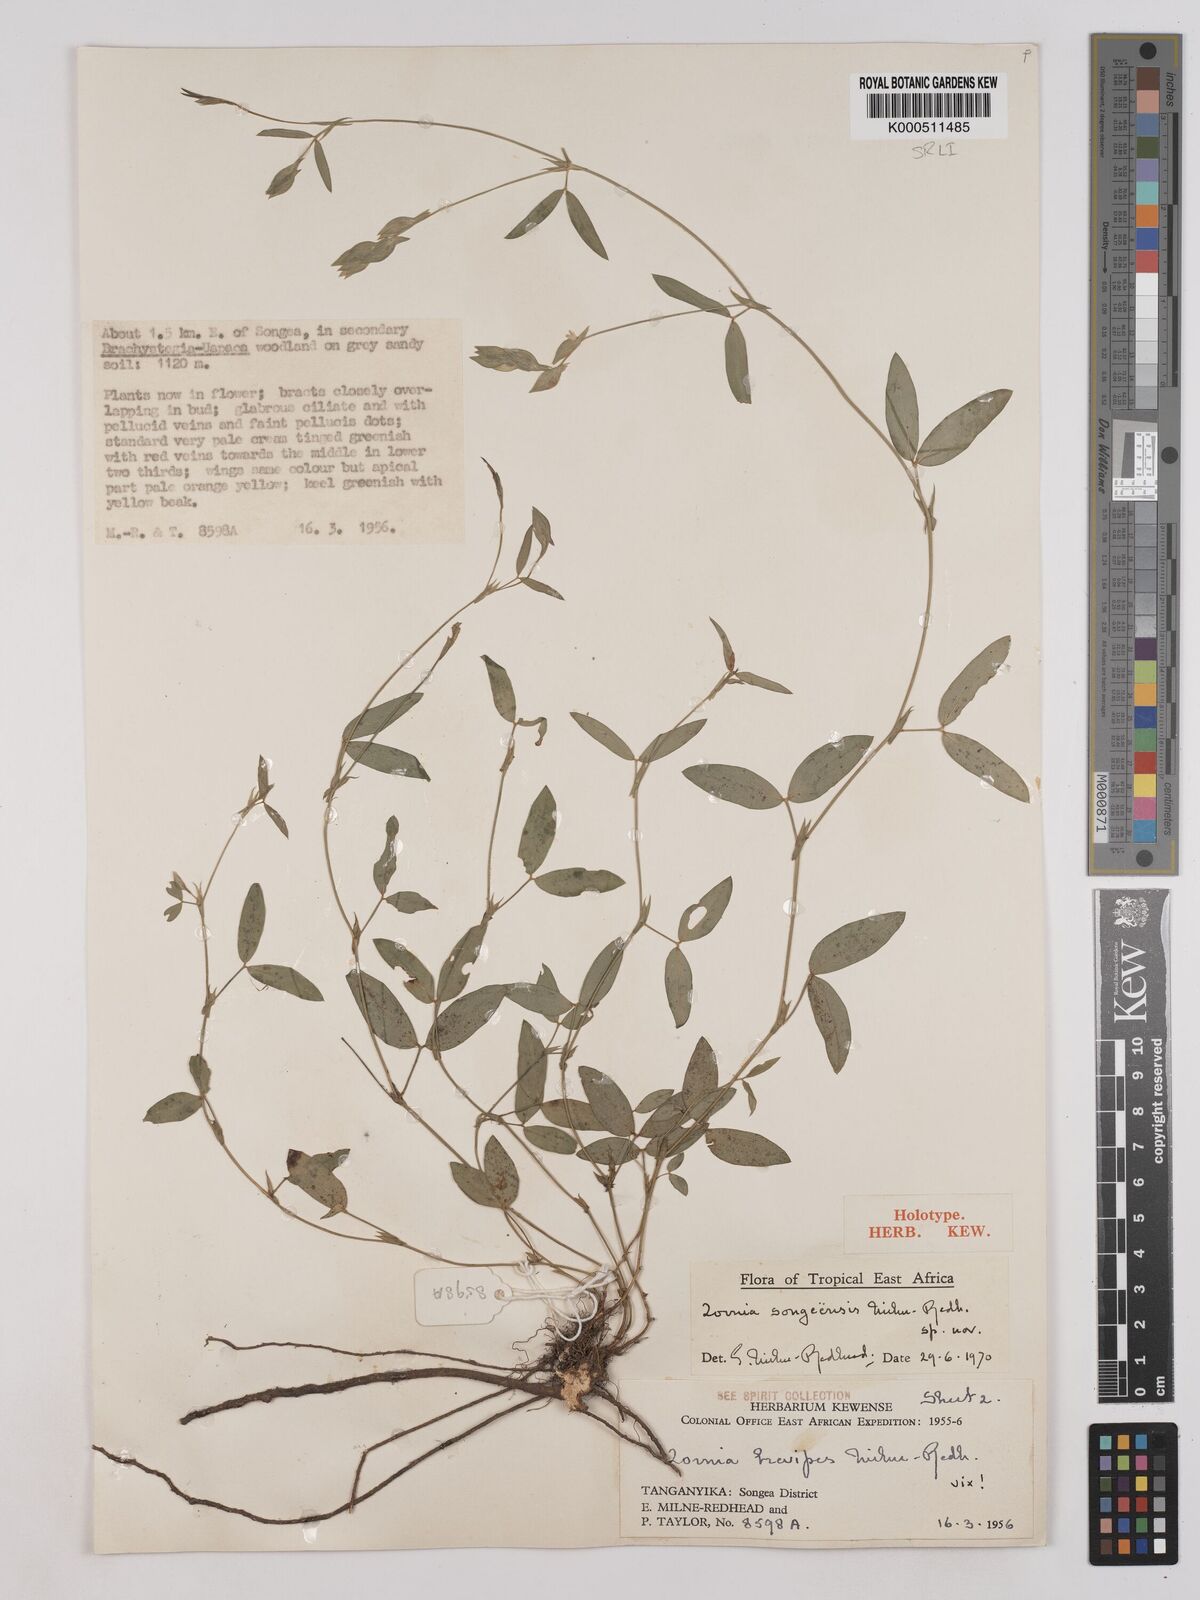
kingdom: Plantae
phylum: Tracheophyta
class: Magnoliopsida
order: Fabales
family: Fabaceae
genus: Zornia
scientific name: Zornia songeensis
